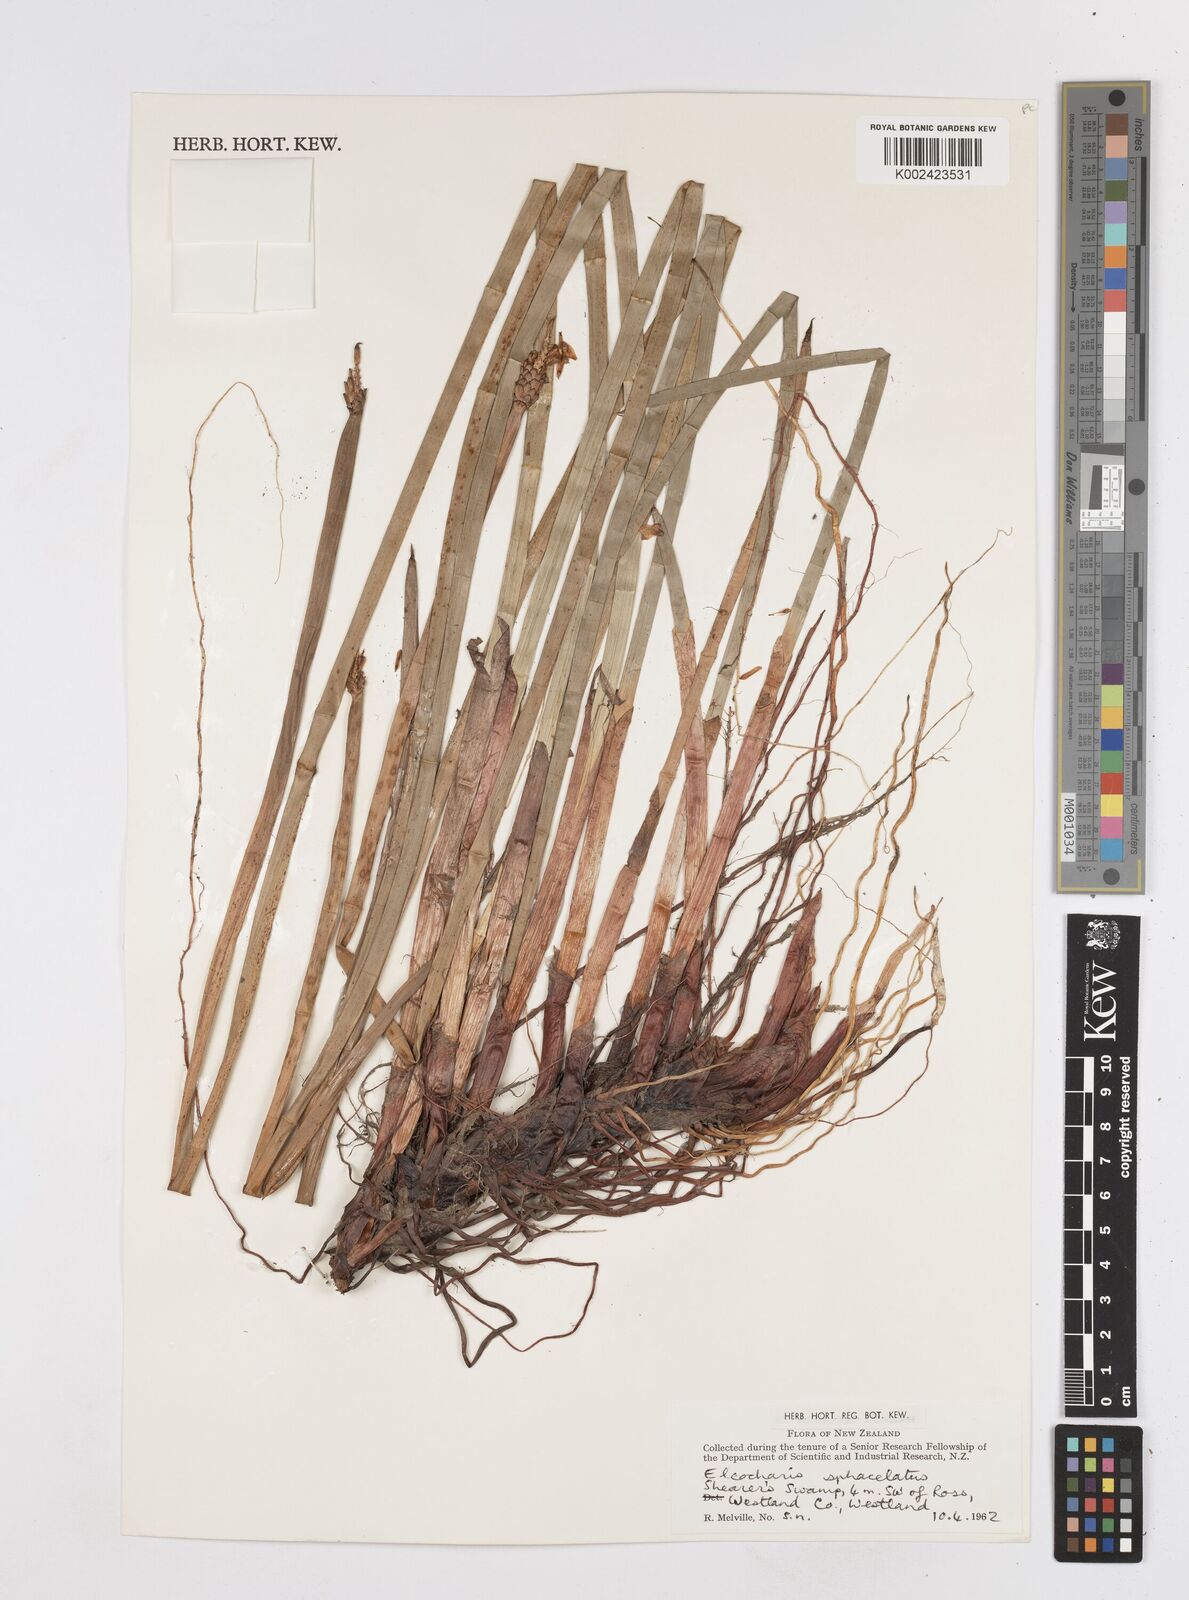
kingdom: Plantae
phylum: Tracheophyta
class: Liliopsida
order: Poales
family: Cyperaceae
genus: Eleocharis
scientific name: Eleocharis sphacelata
